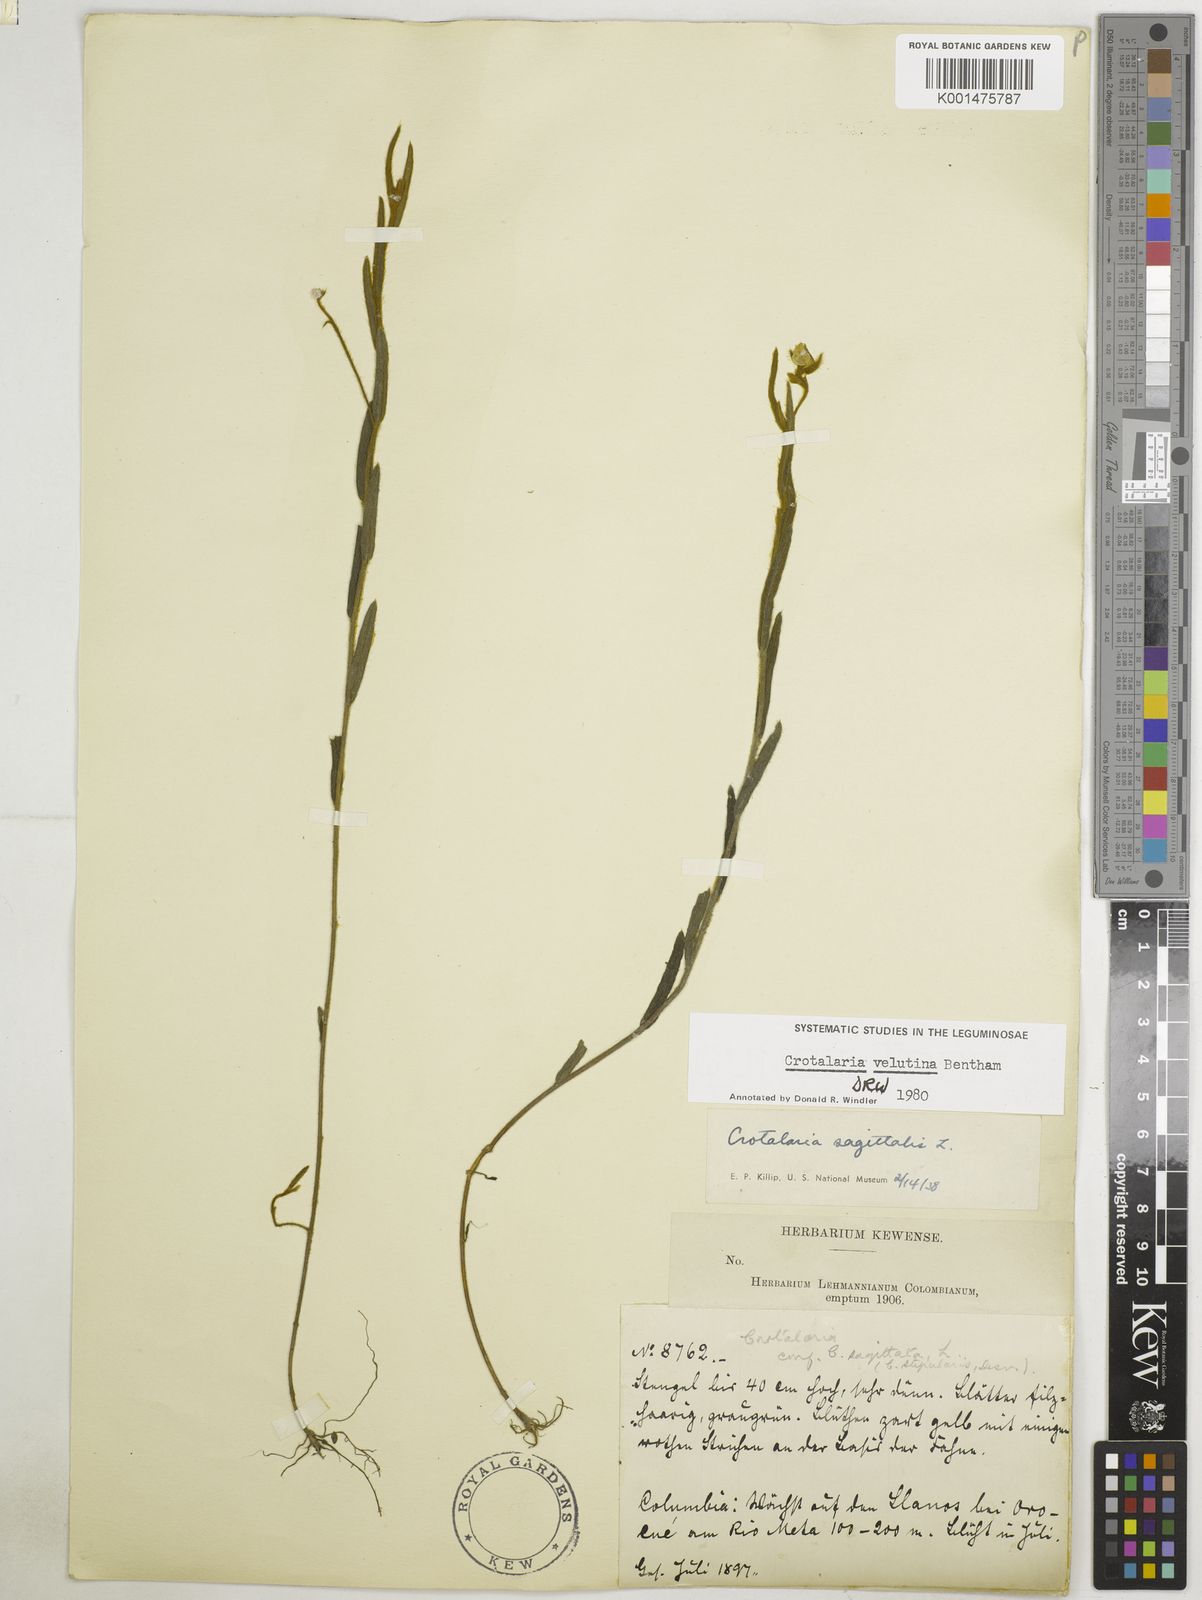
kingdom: Plantae
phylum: Tracheophyta
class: Magnoliopsida
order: Fabales
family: Fabaceae
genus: Crotalaria
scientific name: Crotalaria velutina
